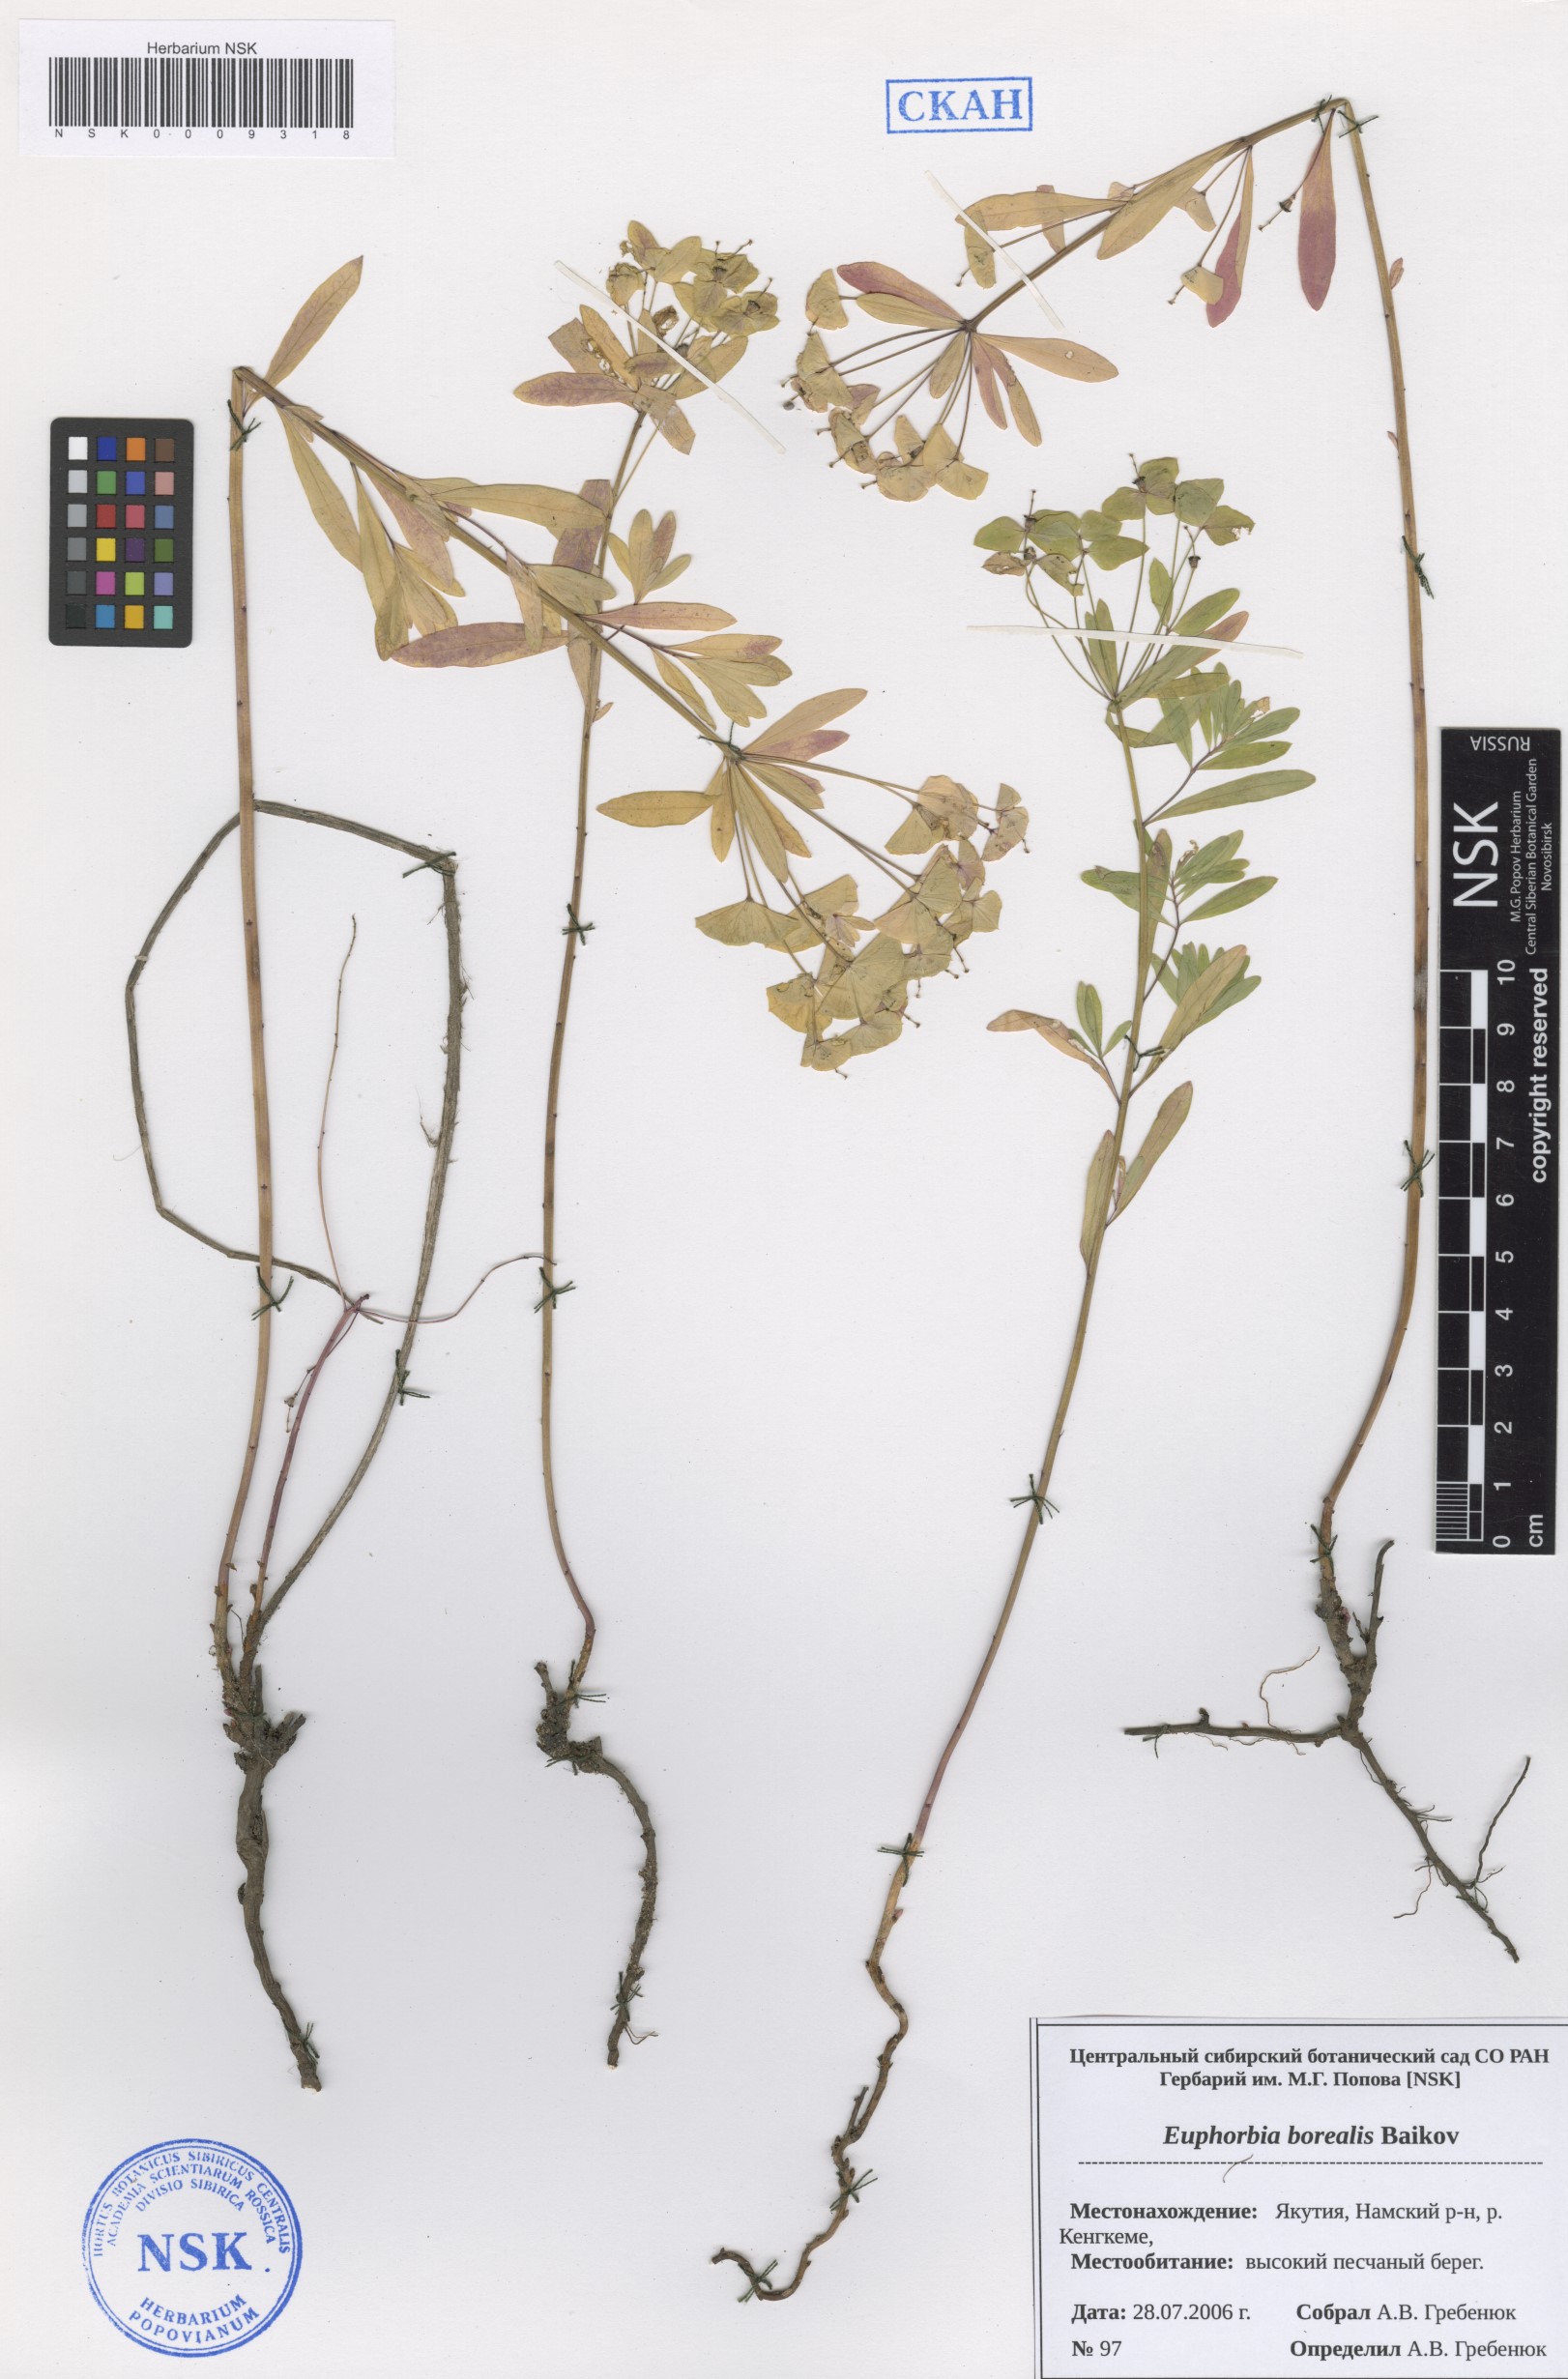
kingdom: Plantae
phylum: Tracheophyta
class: Magnoliopsida
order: Malpighiales
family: Euphorbiaceae
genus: Euphorbia
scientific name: Euphorbia borealis
